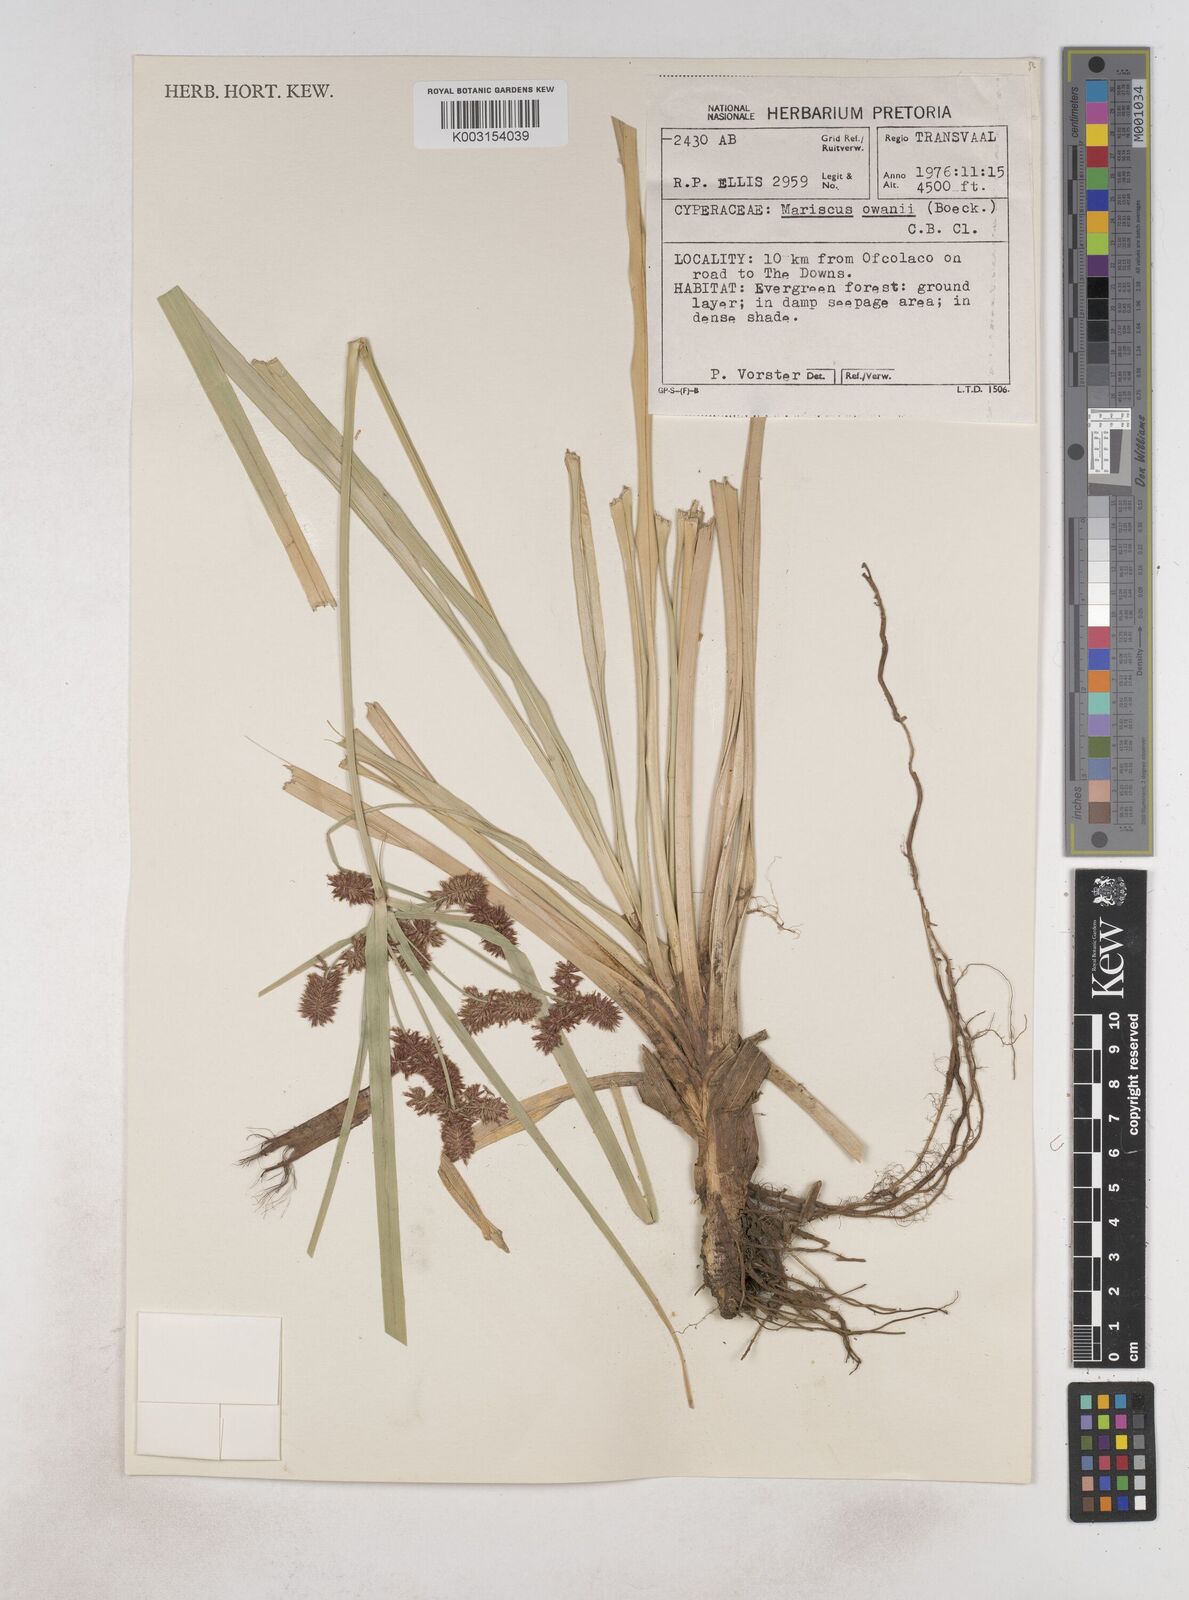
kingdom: Plantae
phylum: Tracheophyta
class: Liliopsida
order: Poales
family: Cyperaceae
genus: Cyperus
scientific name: Cyperus owanii
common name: Owan's flatsedge
